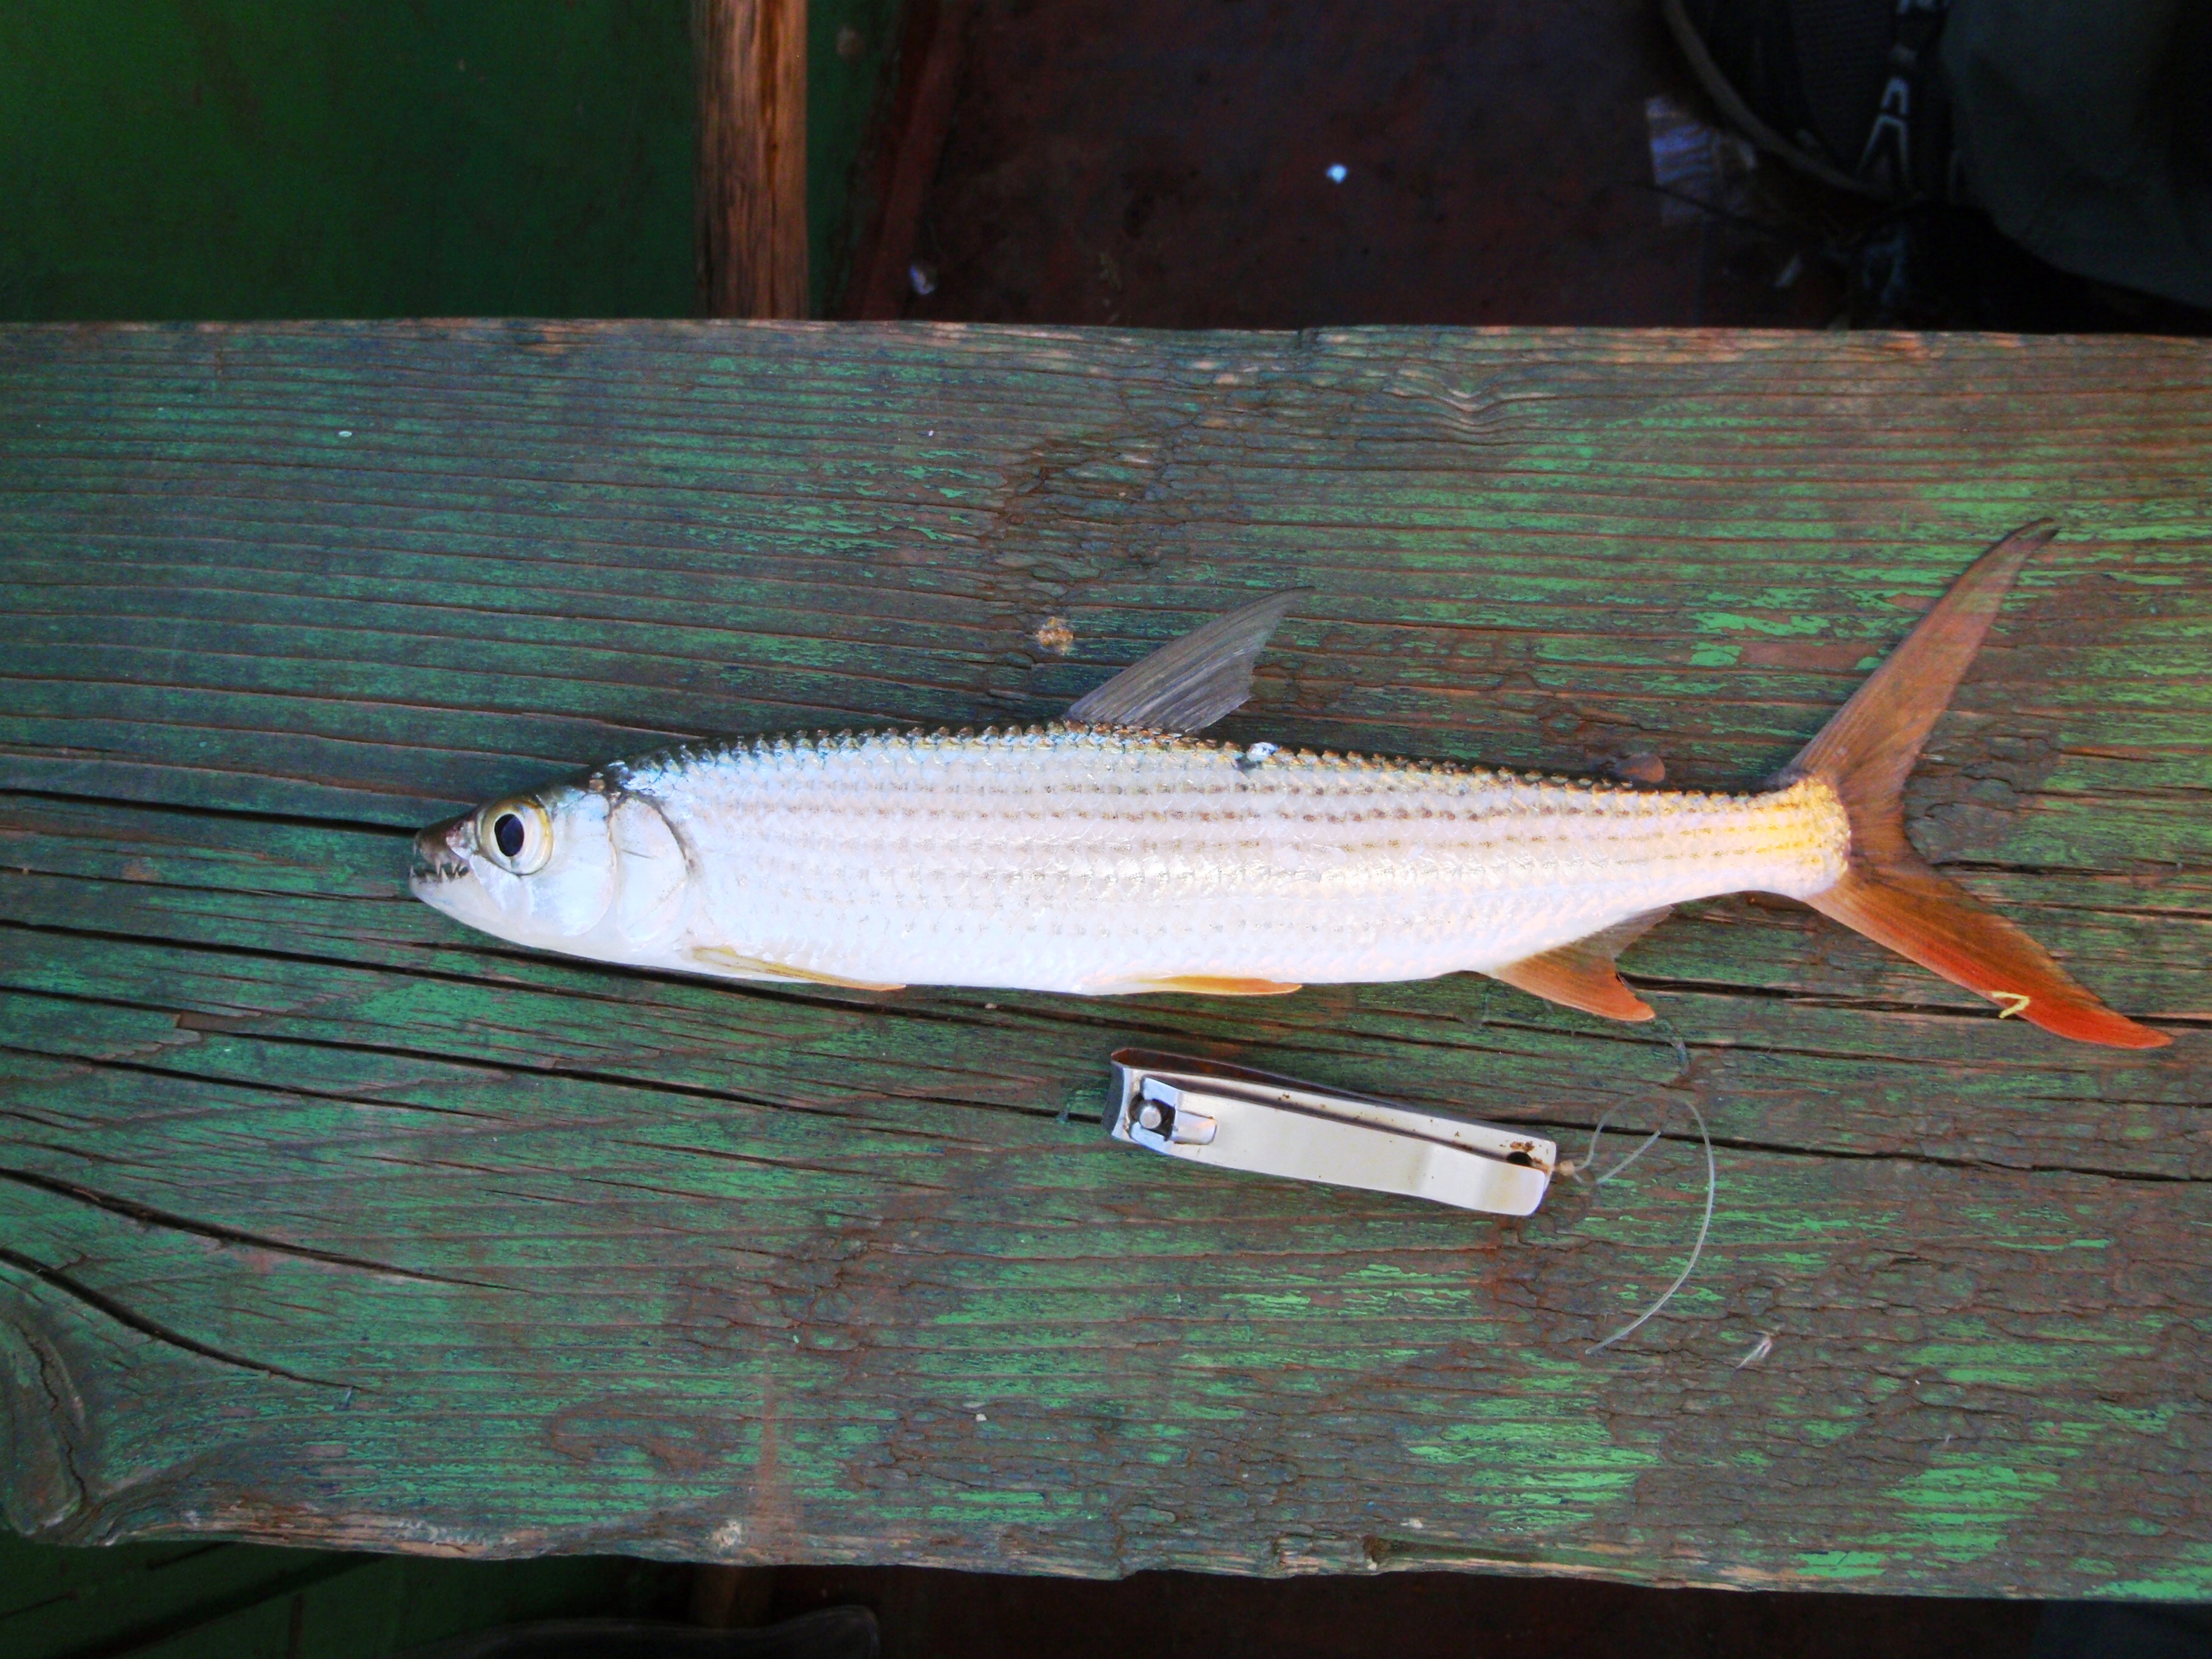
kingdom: Animalia
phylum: Chordata
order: Characiformes
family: Alestidae
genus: Hydrocynus
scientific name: Hydrocynus forskahlii
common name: Elongate tigerfish
